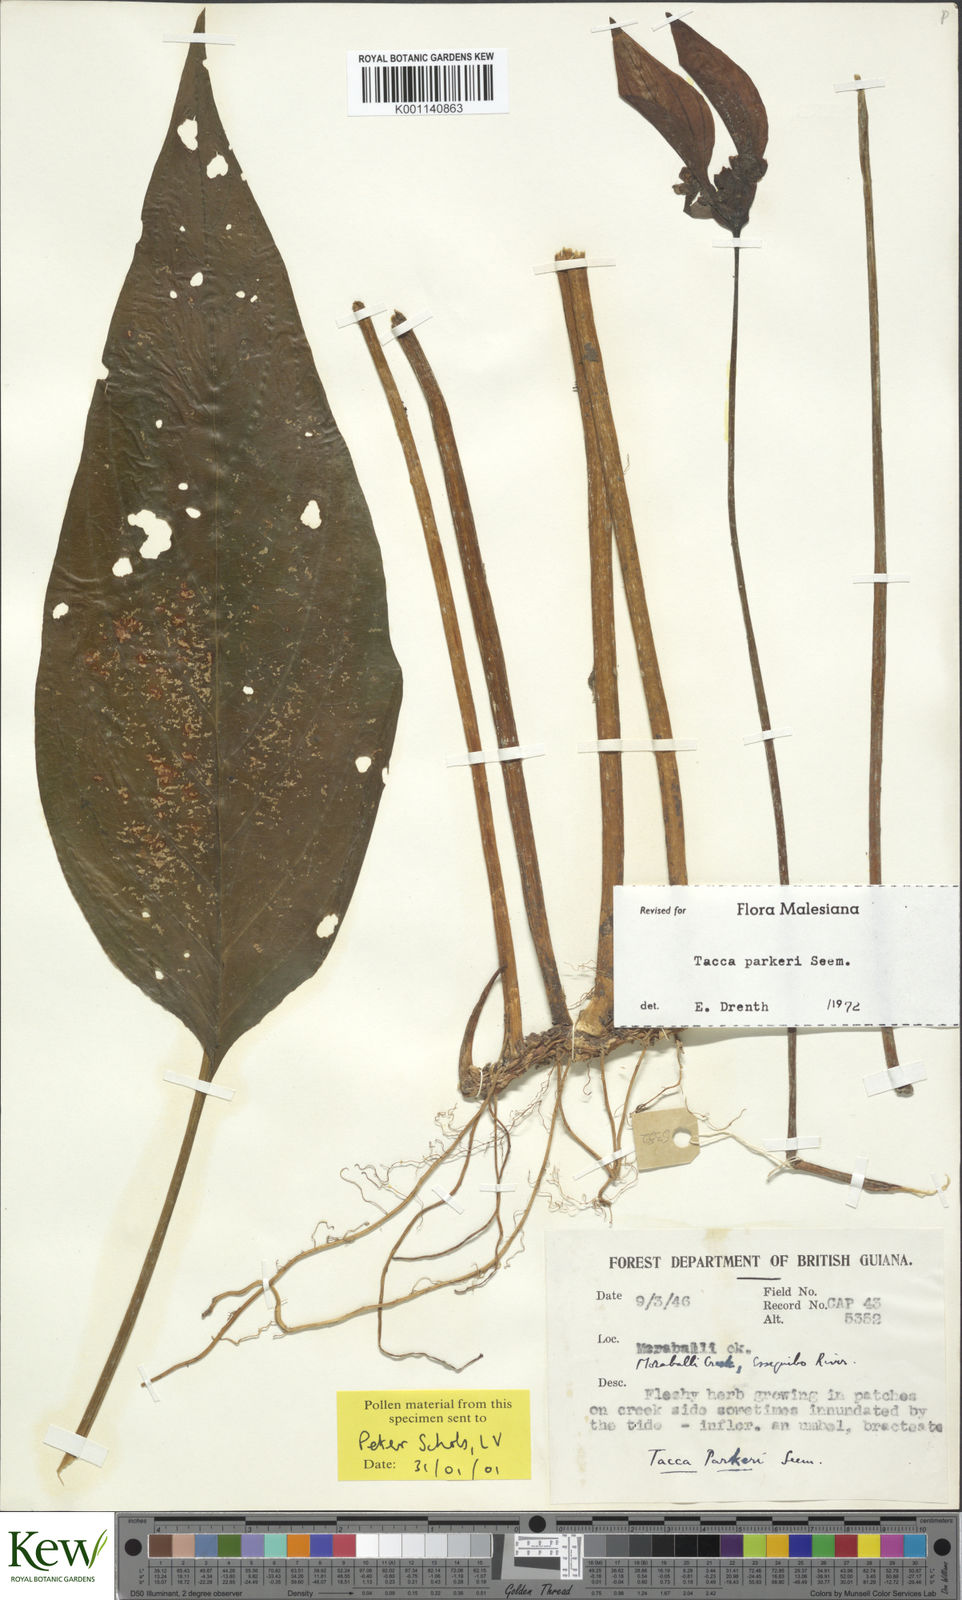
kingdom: Plantae
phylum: Tracheophyta
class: Liliopsida
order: Dioscoreales
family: Dioscoreaceae
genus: Tacca
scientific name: Tacca parkeri
